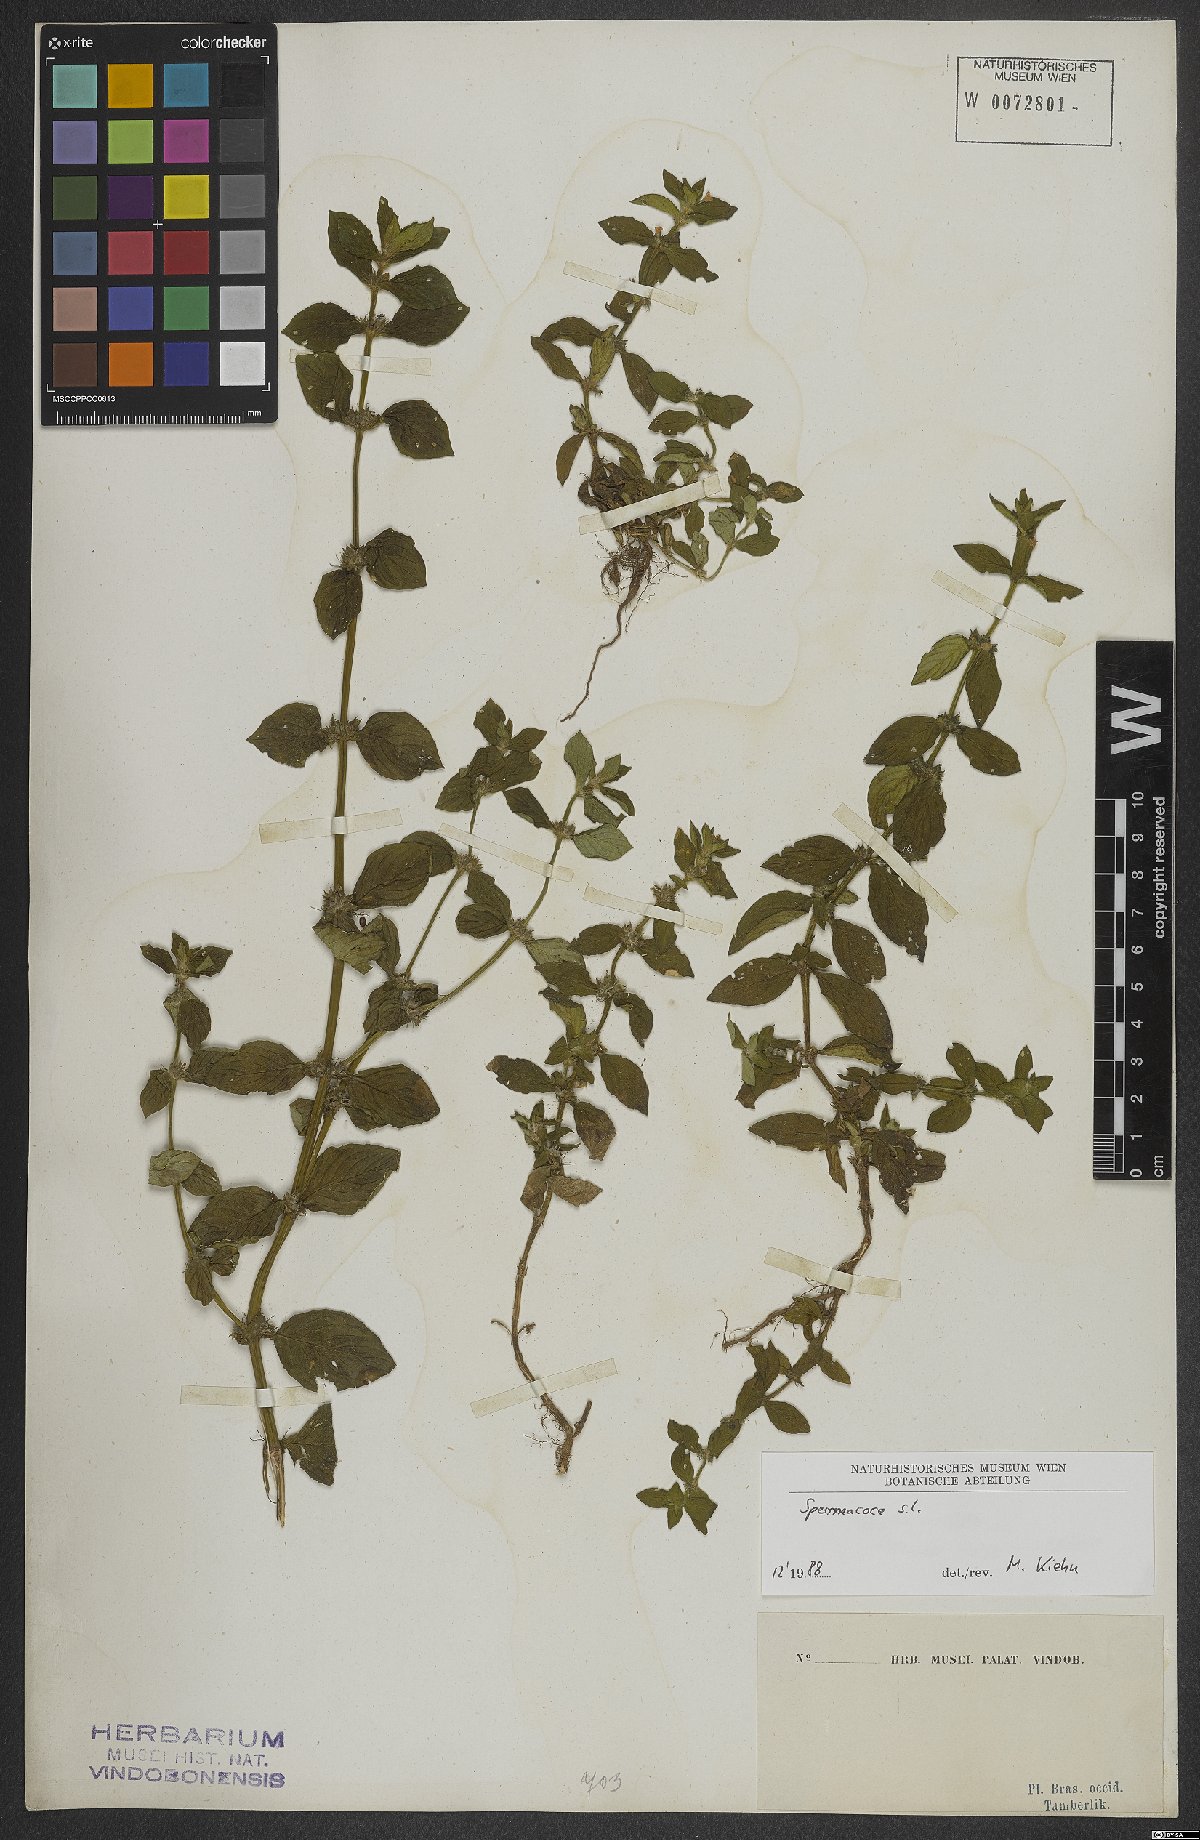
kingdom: Plantae
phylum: Tracheophyta
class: Magnoliopsida
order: Gentianales
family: Rubiaceae
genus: Spermacoce
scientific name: Spermacoce
